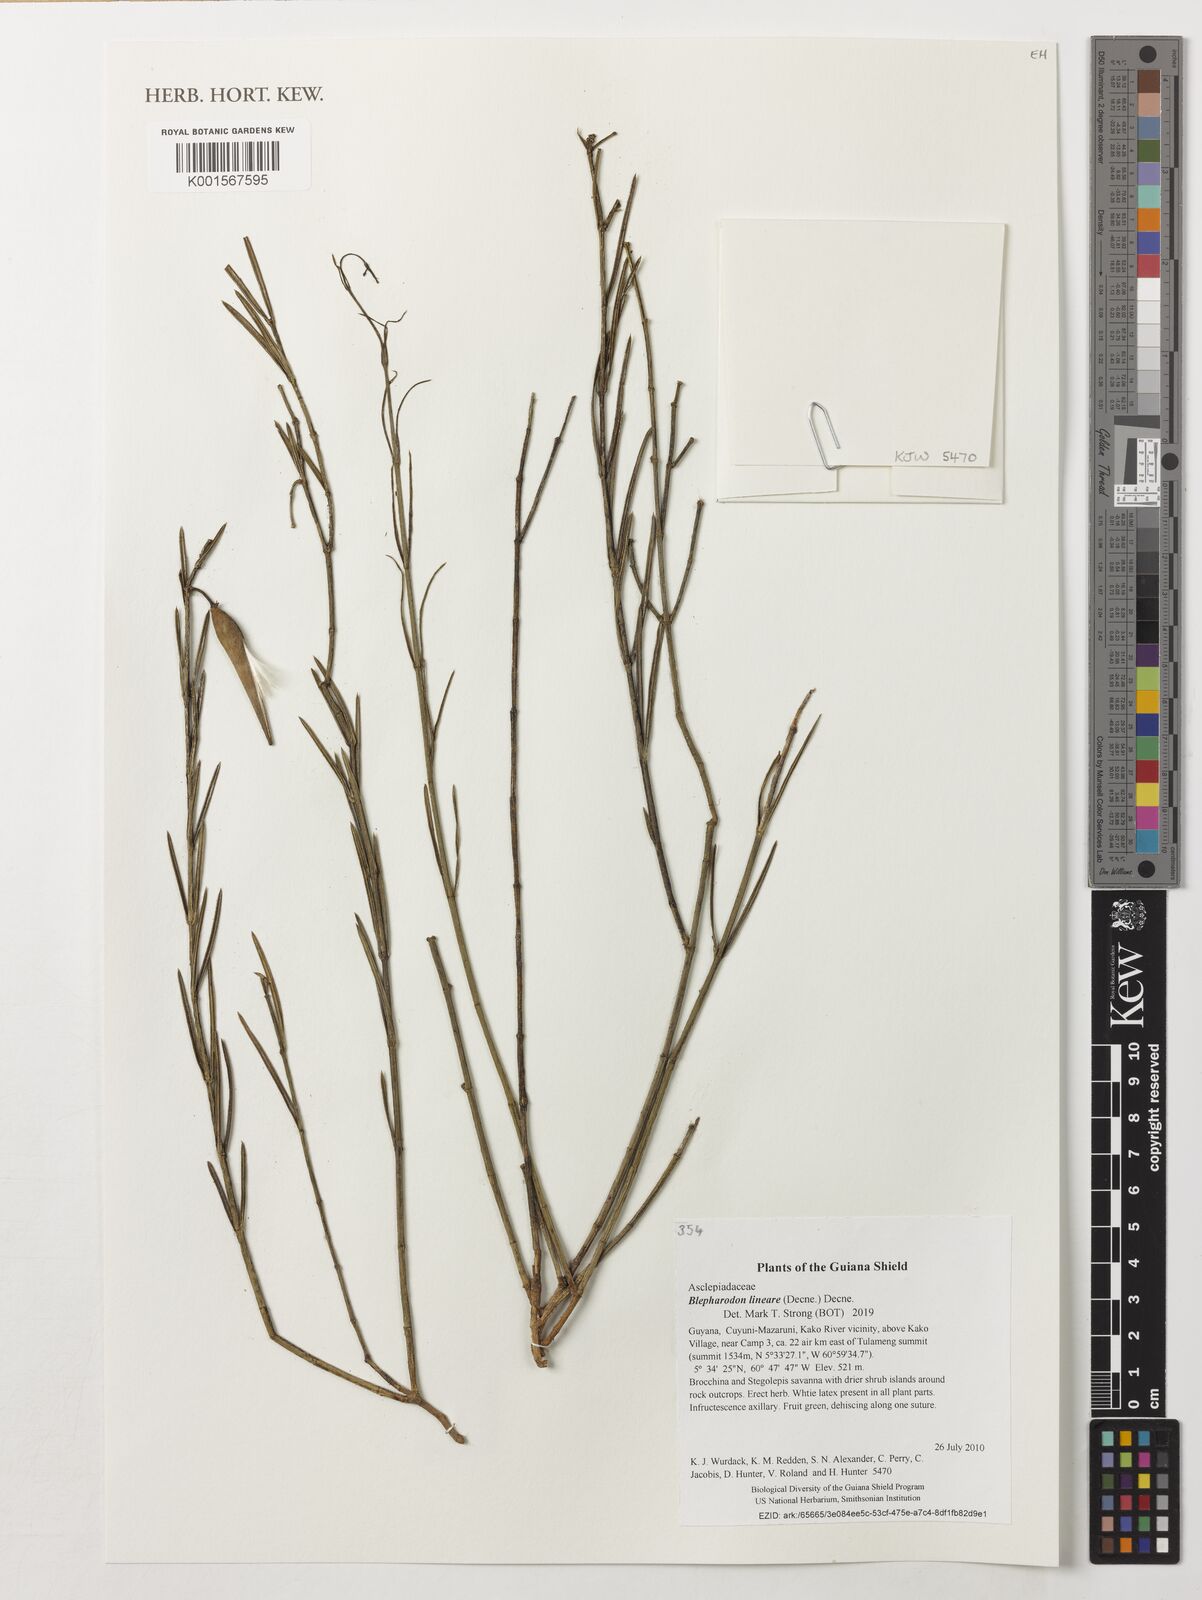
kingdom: Plantae
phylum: Tracheophyta
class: Magnoliopsida
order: Gentianales
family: Apocynaceae
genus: Blepharodon
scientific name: Blepharodon lineare
